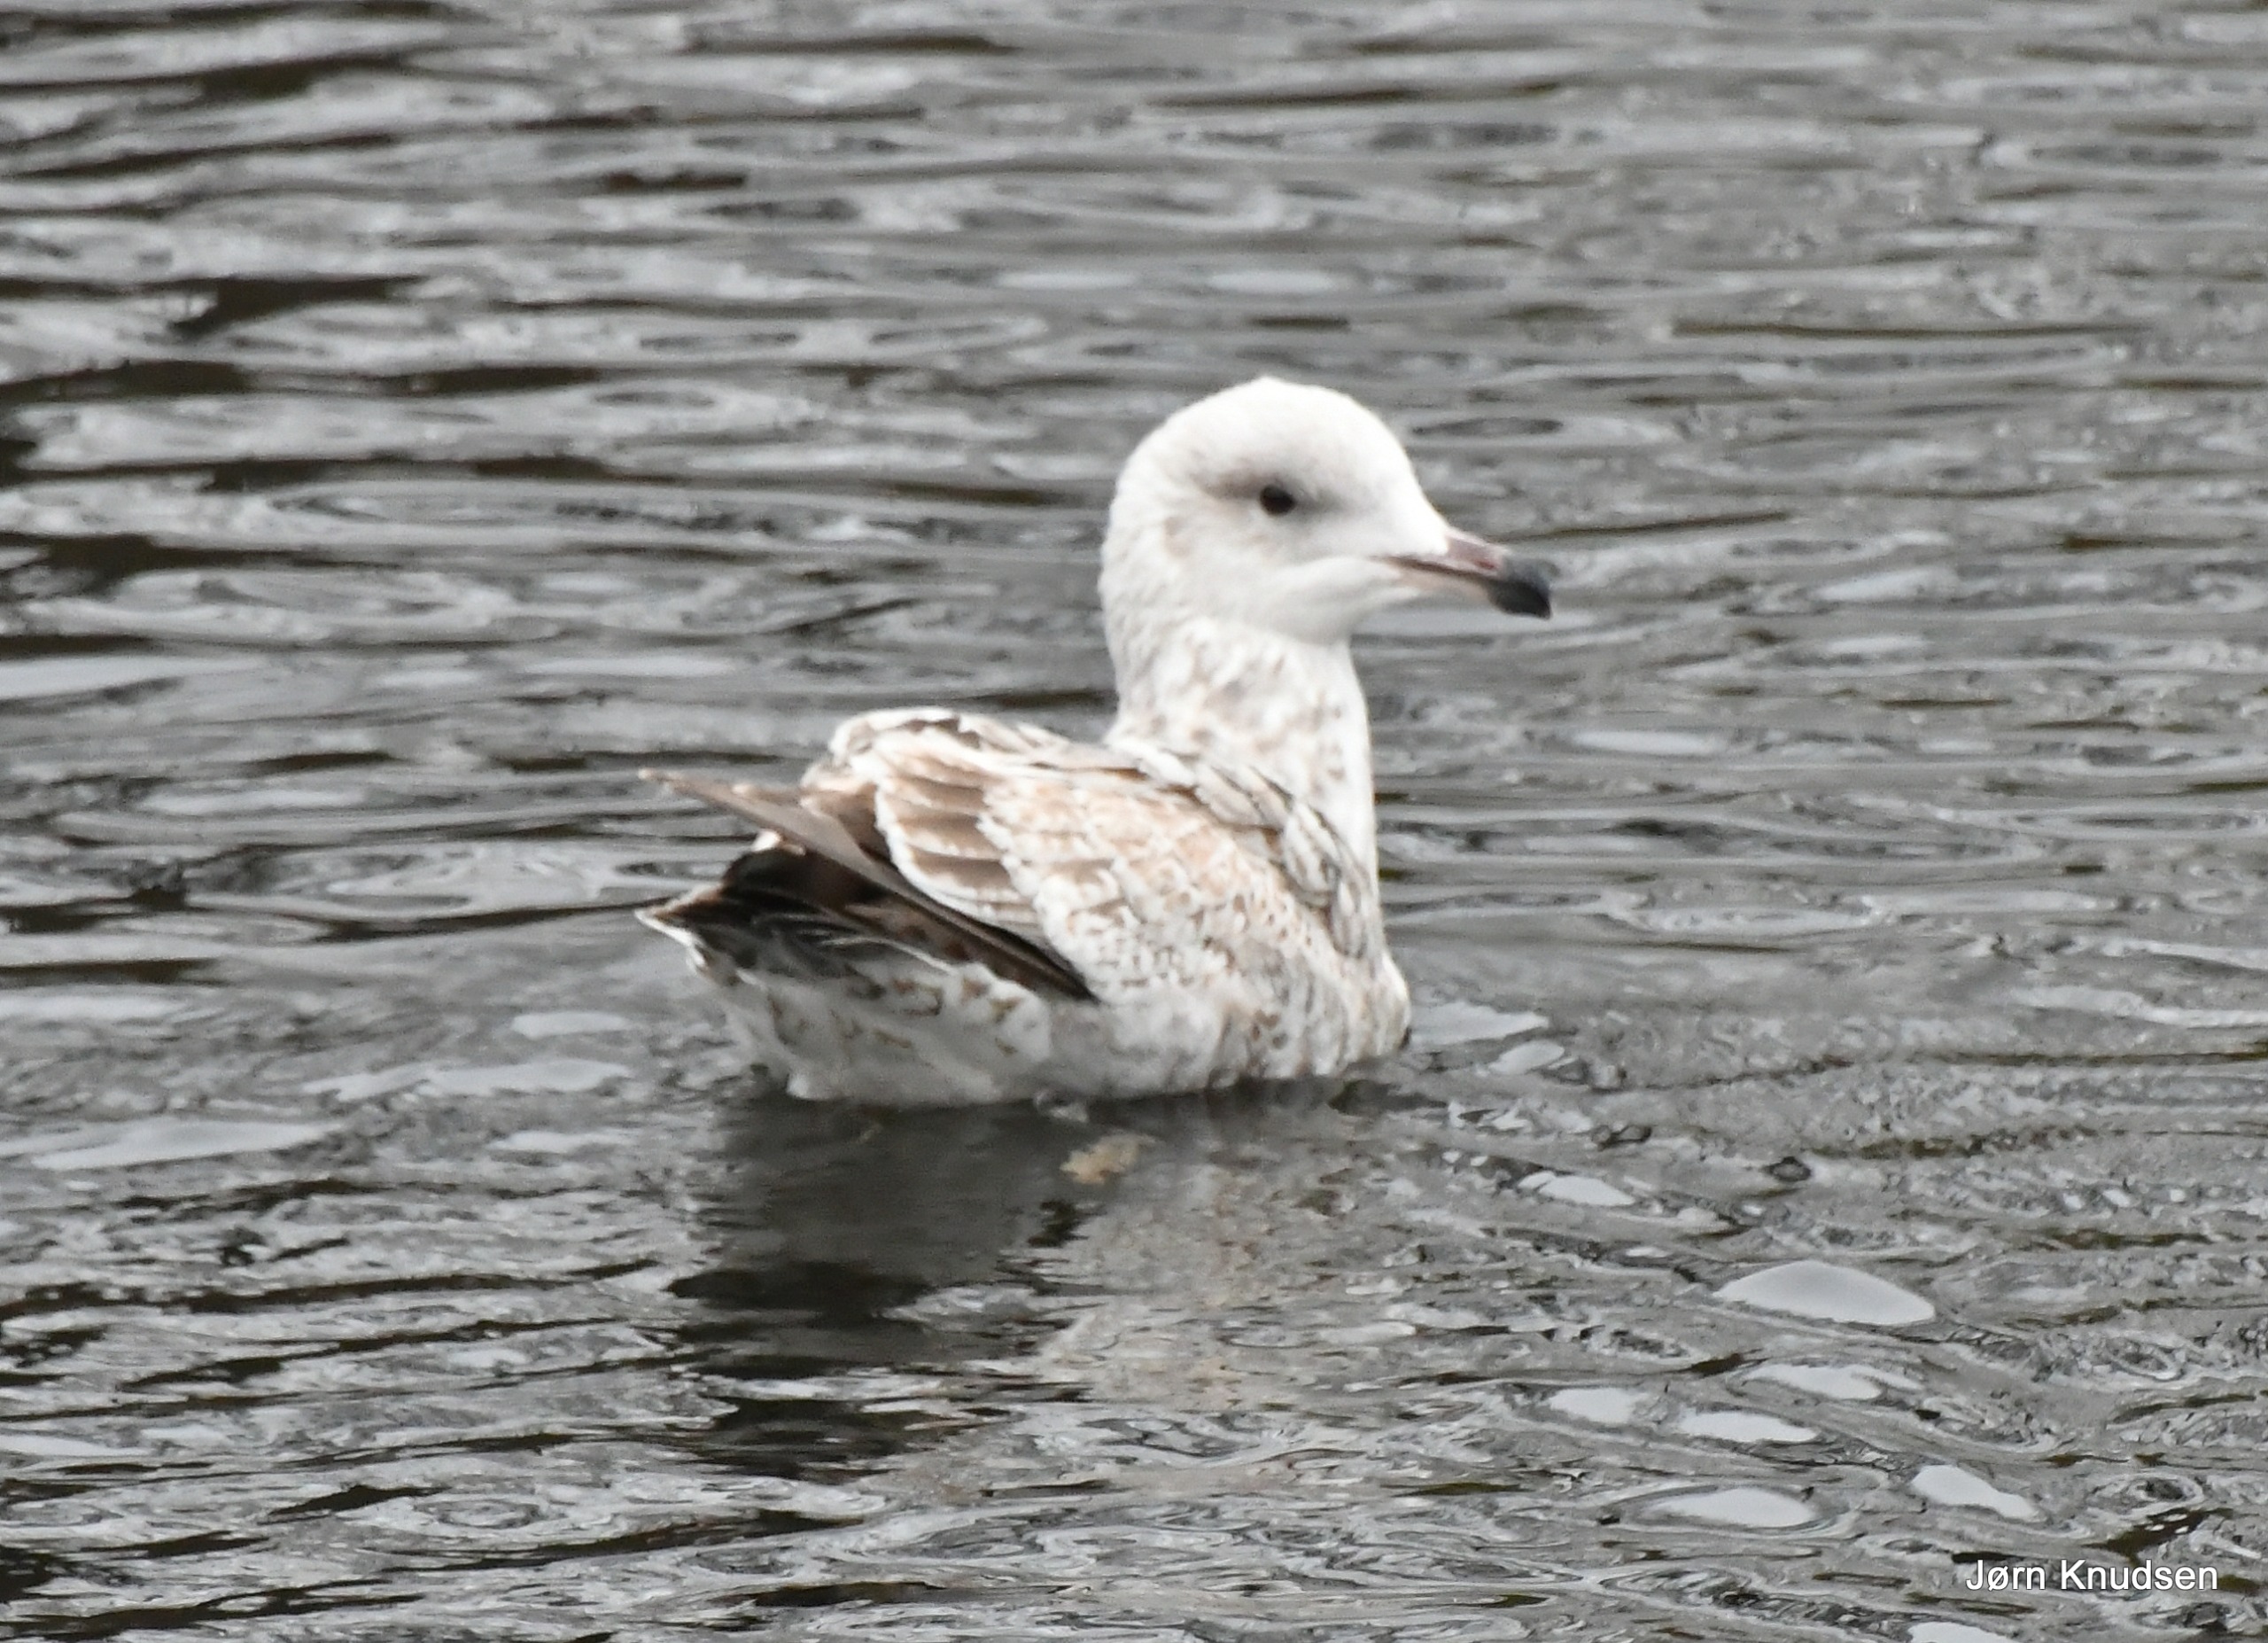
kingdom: Animalia
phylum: Chordata
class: Aves
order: Charadriiformes
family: Laridae
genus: Larus
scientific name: Larus argentatus
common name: Sølvmåge
